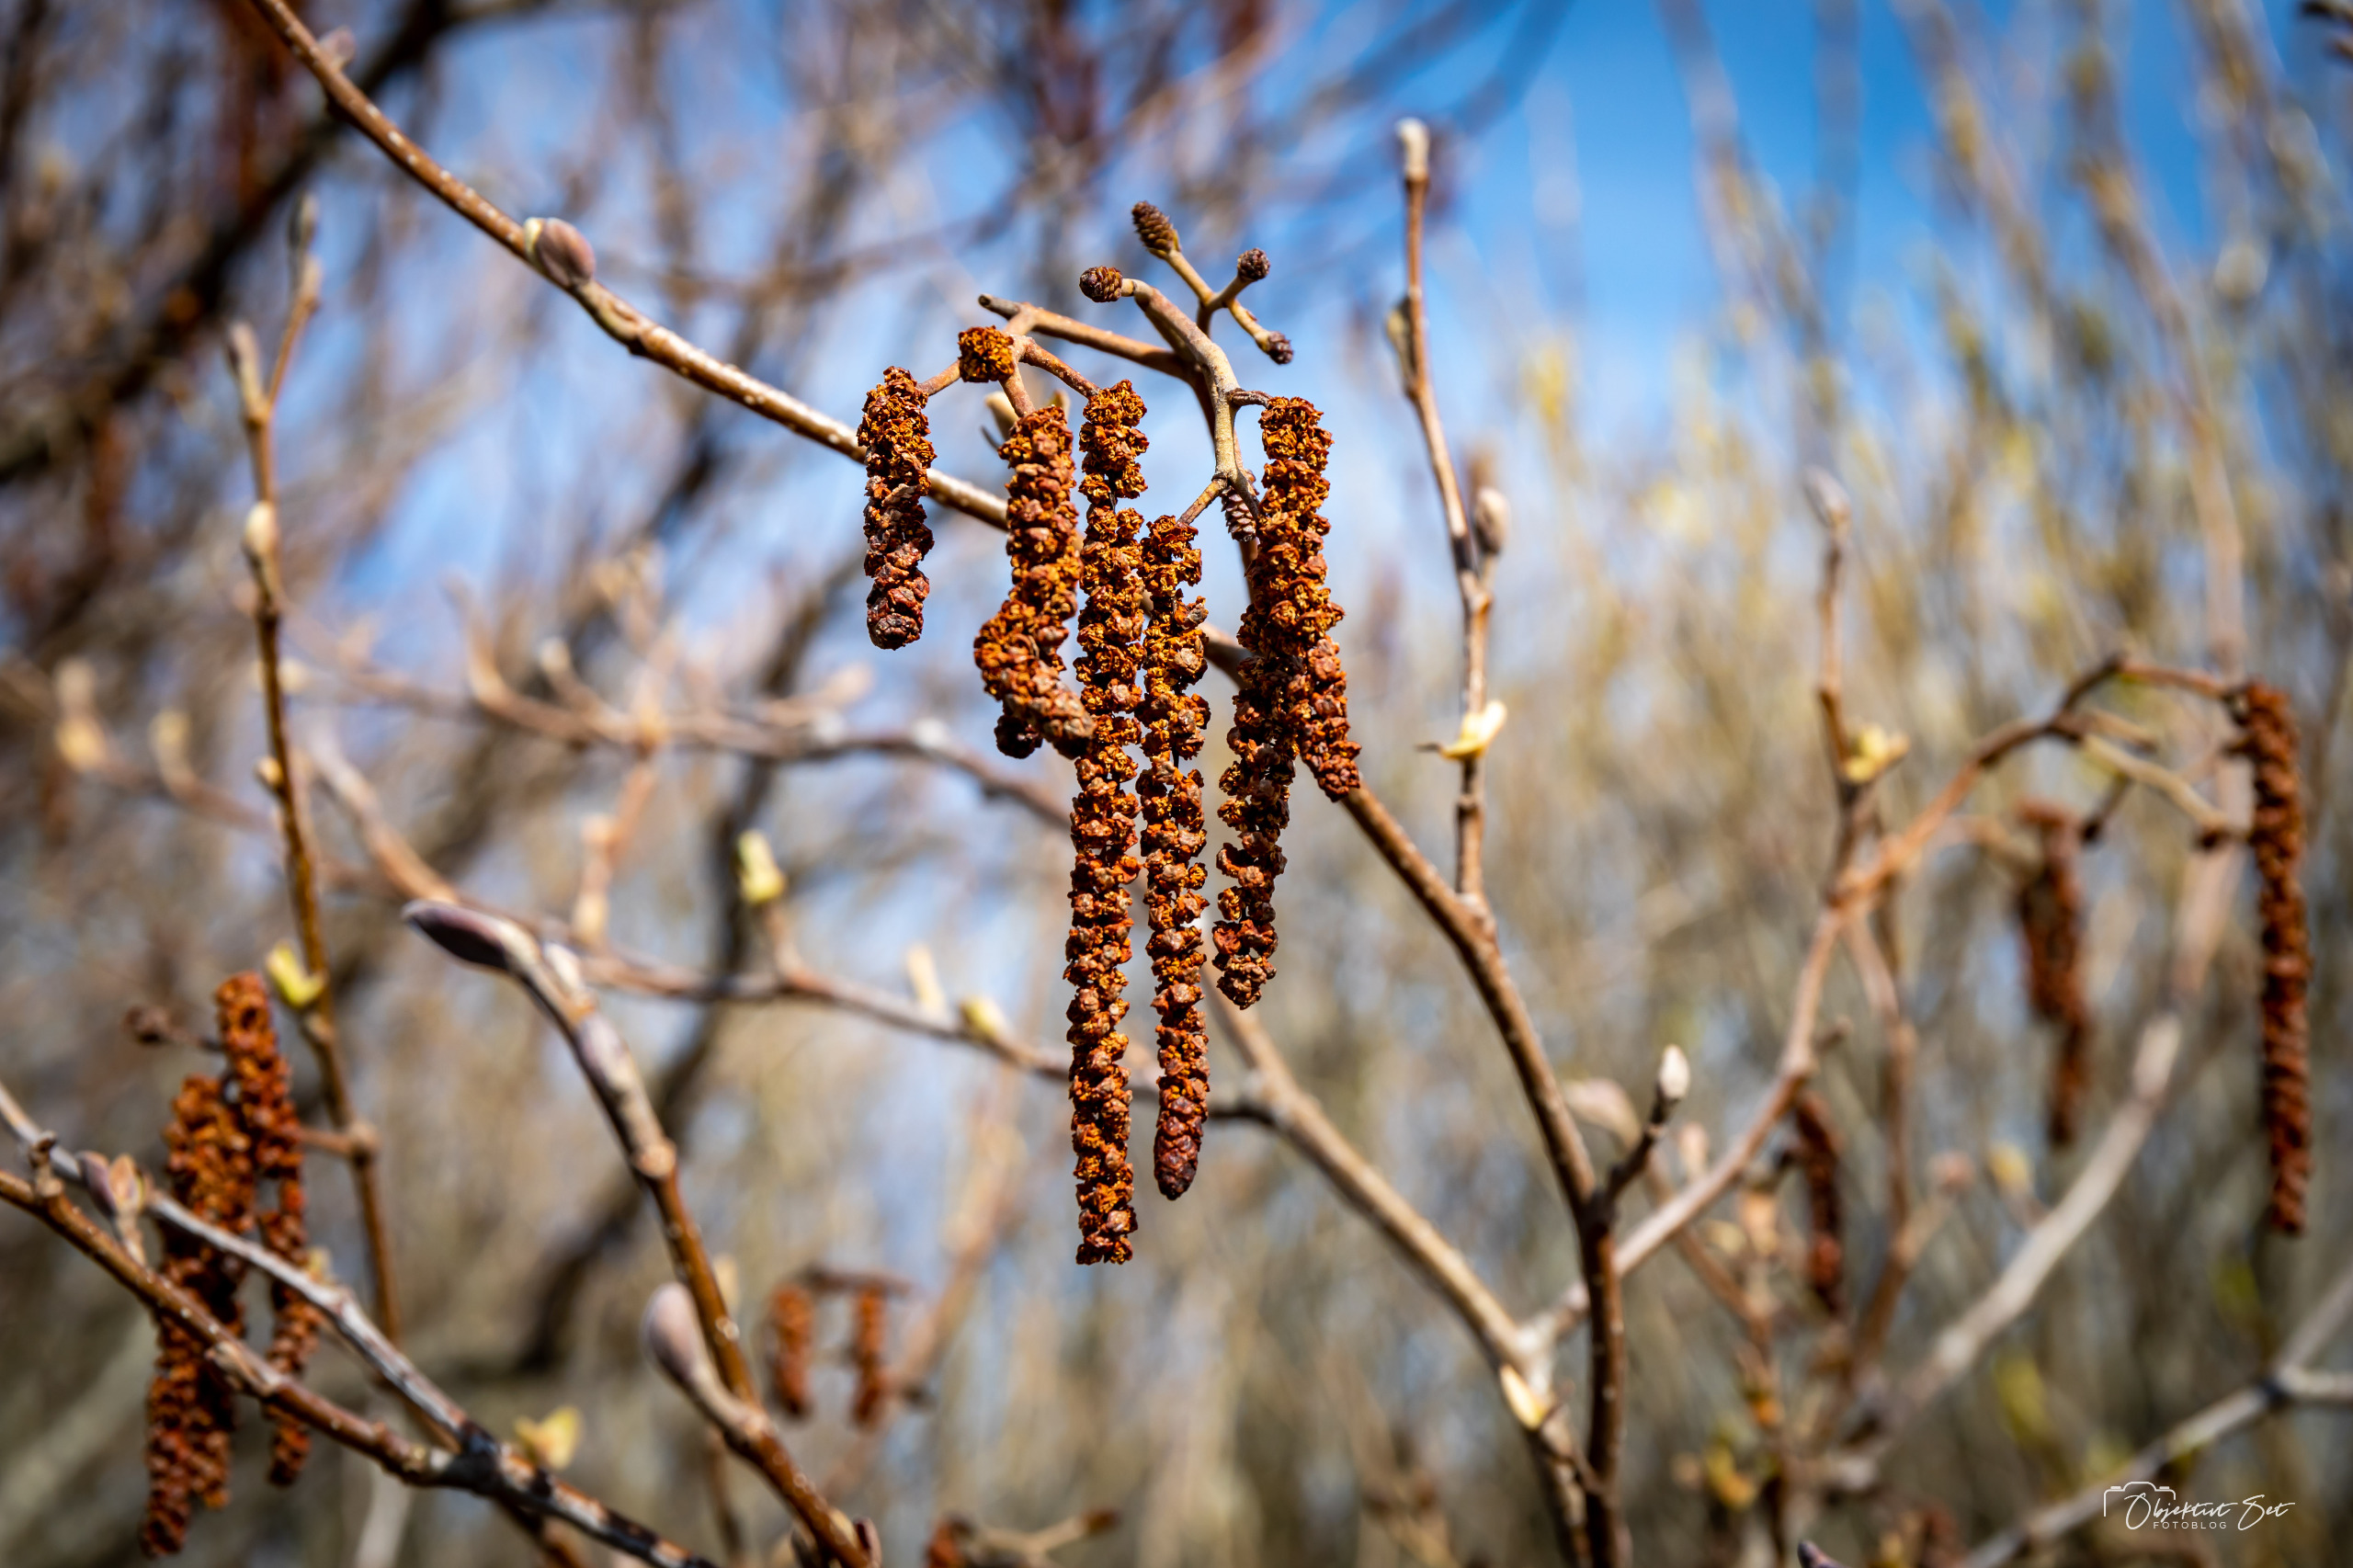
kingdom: Plantae
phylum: Tracheophyta
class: Magnoliopsida
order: Fagales
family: Betulaceae
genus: Alnus
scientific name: Alnus glutinosa
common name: Rød-el
